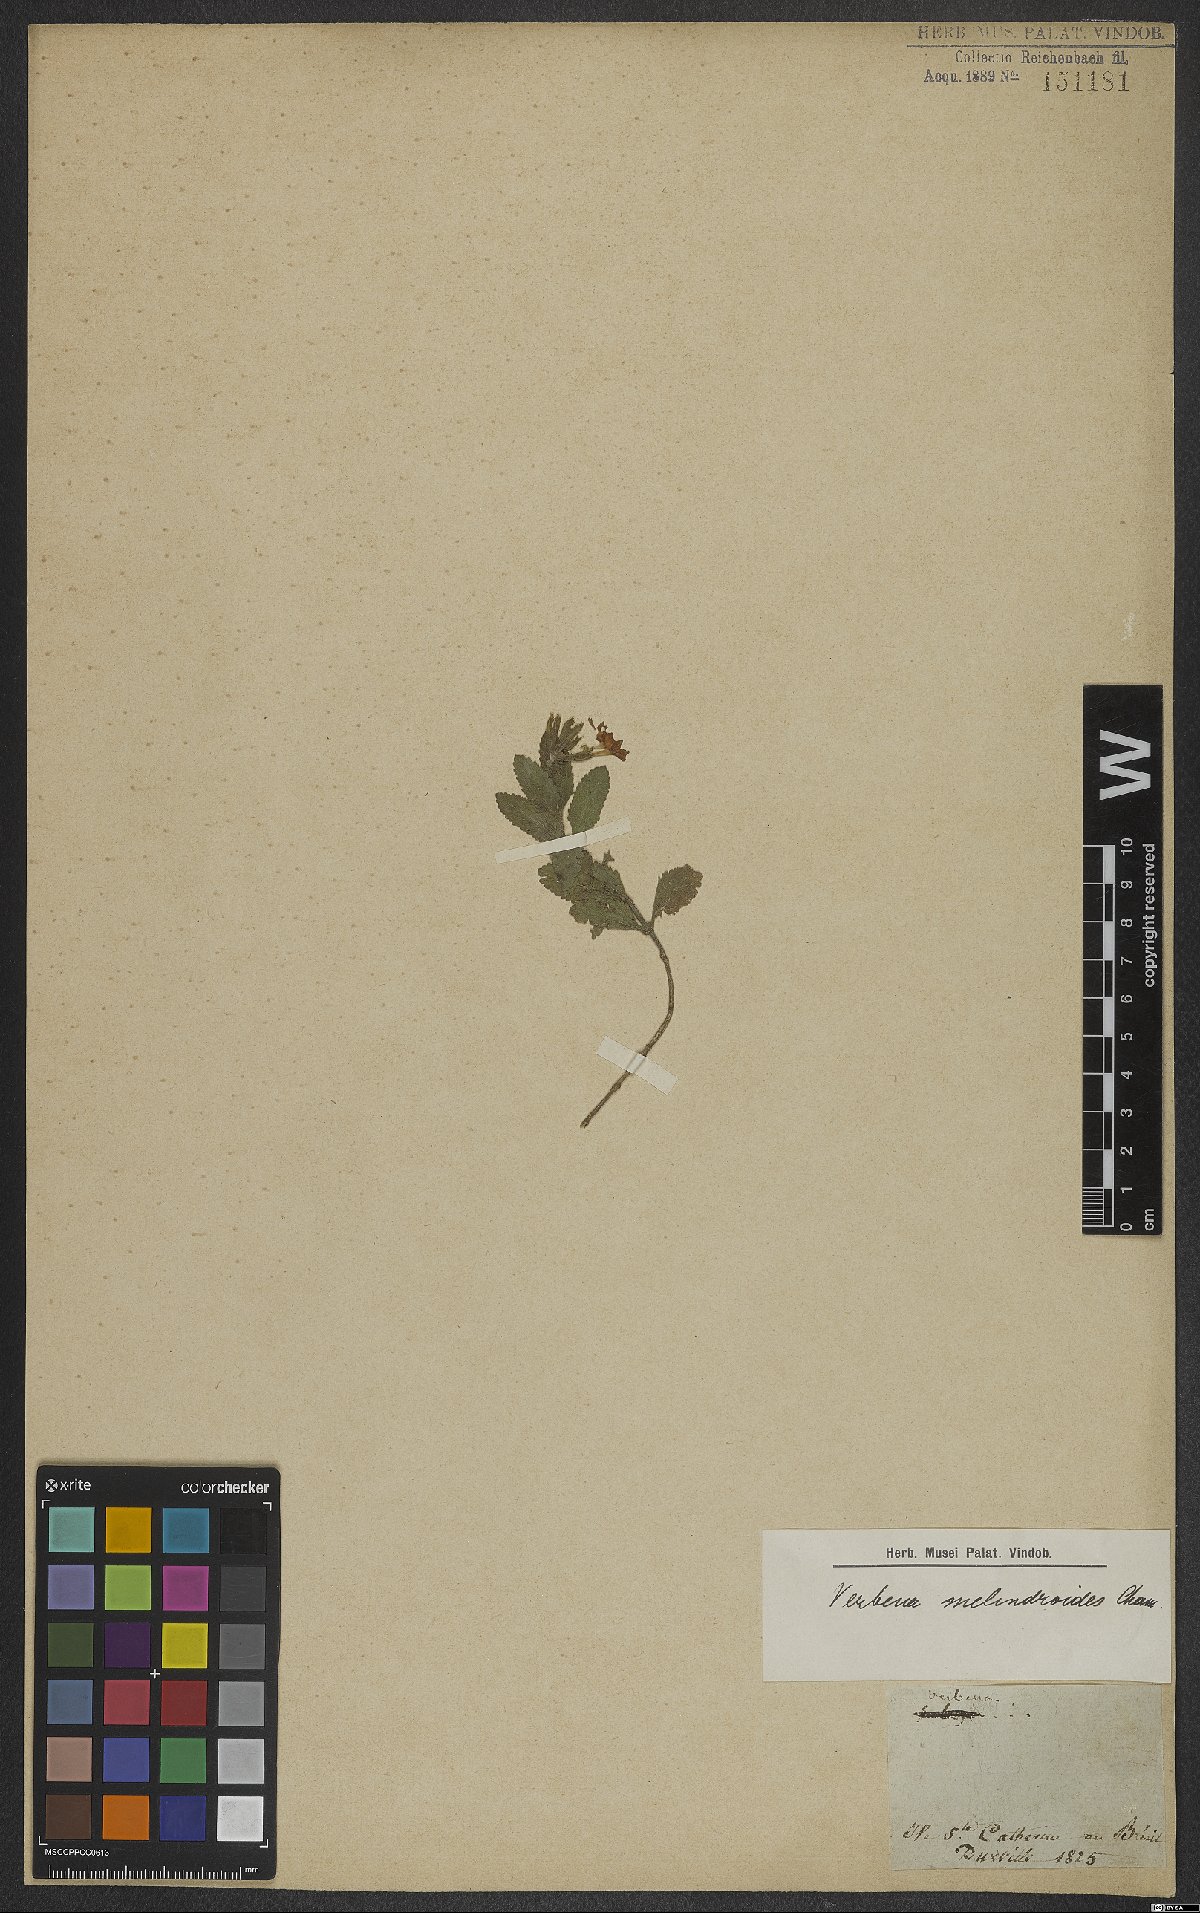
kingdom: Plantae
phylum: Tracheophyta
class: Magnoliopsida
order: Lamiales
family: Verbenaceae
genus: Verbena
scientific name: Verbena peruviana
